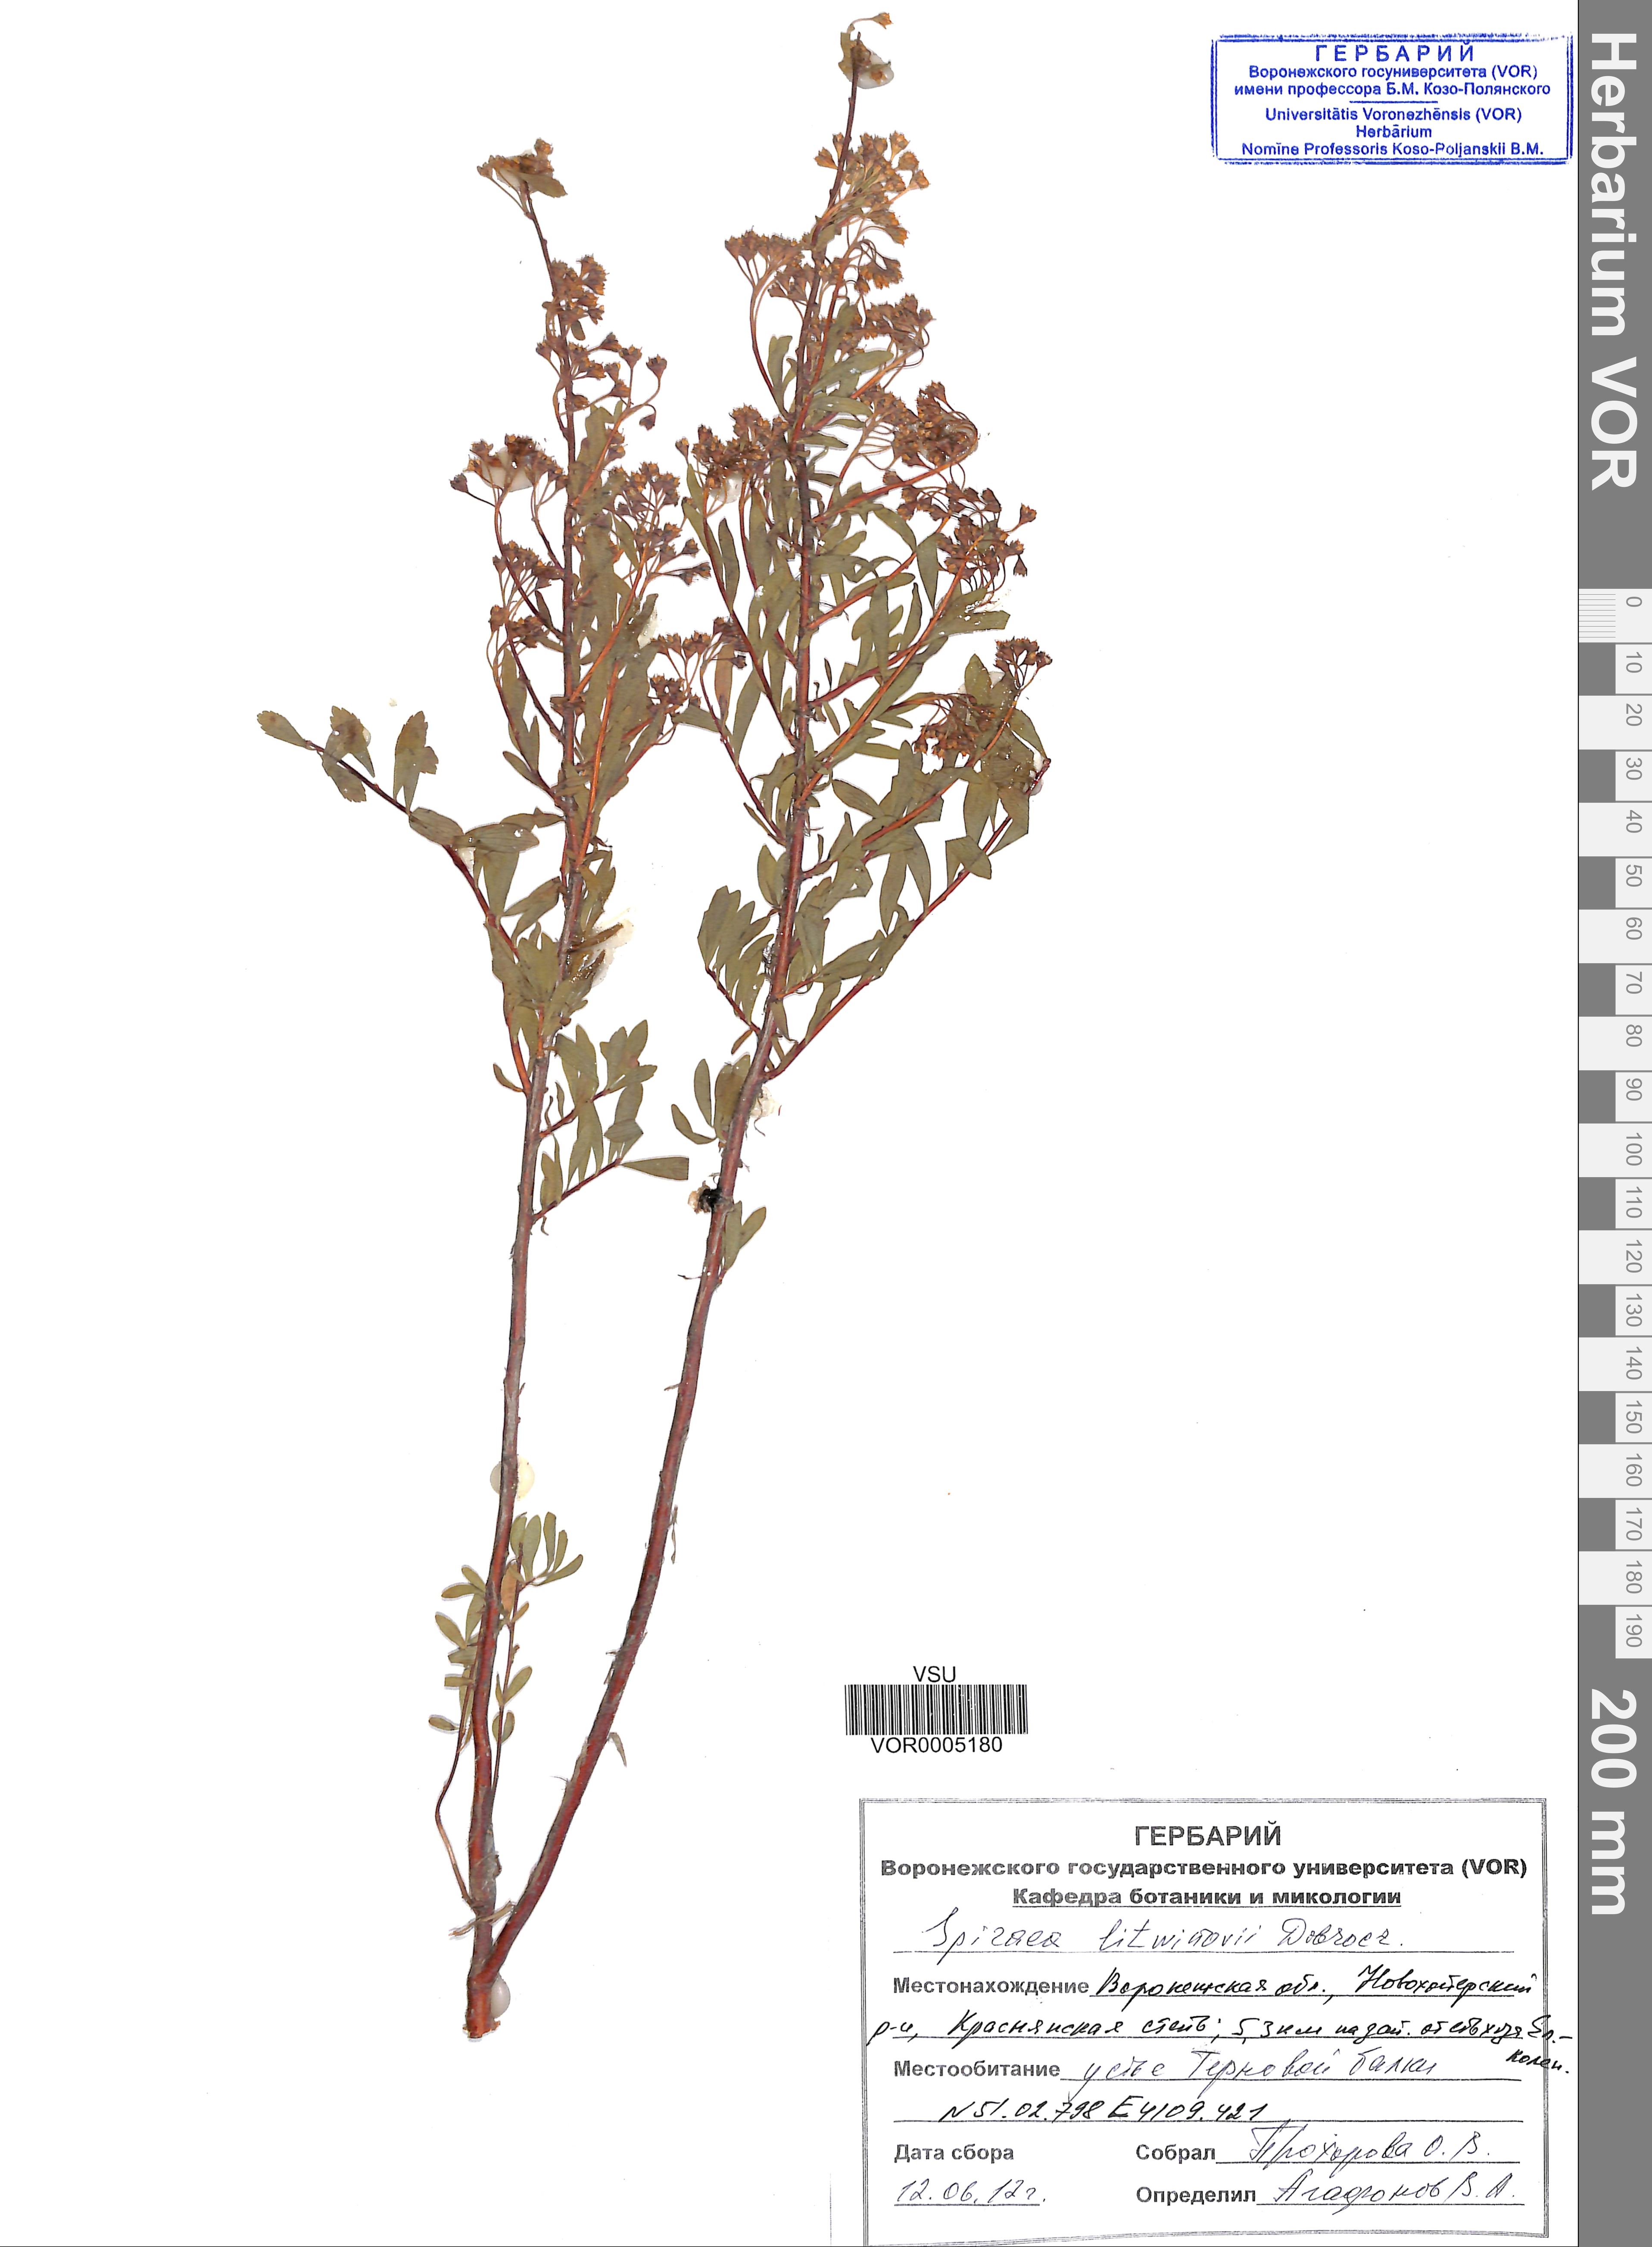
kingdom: Plantae
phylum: Tracheophyta
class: Magnoliopsida
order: Rosales
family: Rosaceae
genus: Spiraea
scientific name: Spiraea crenata
